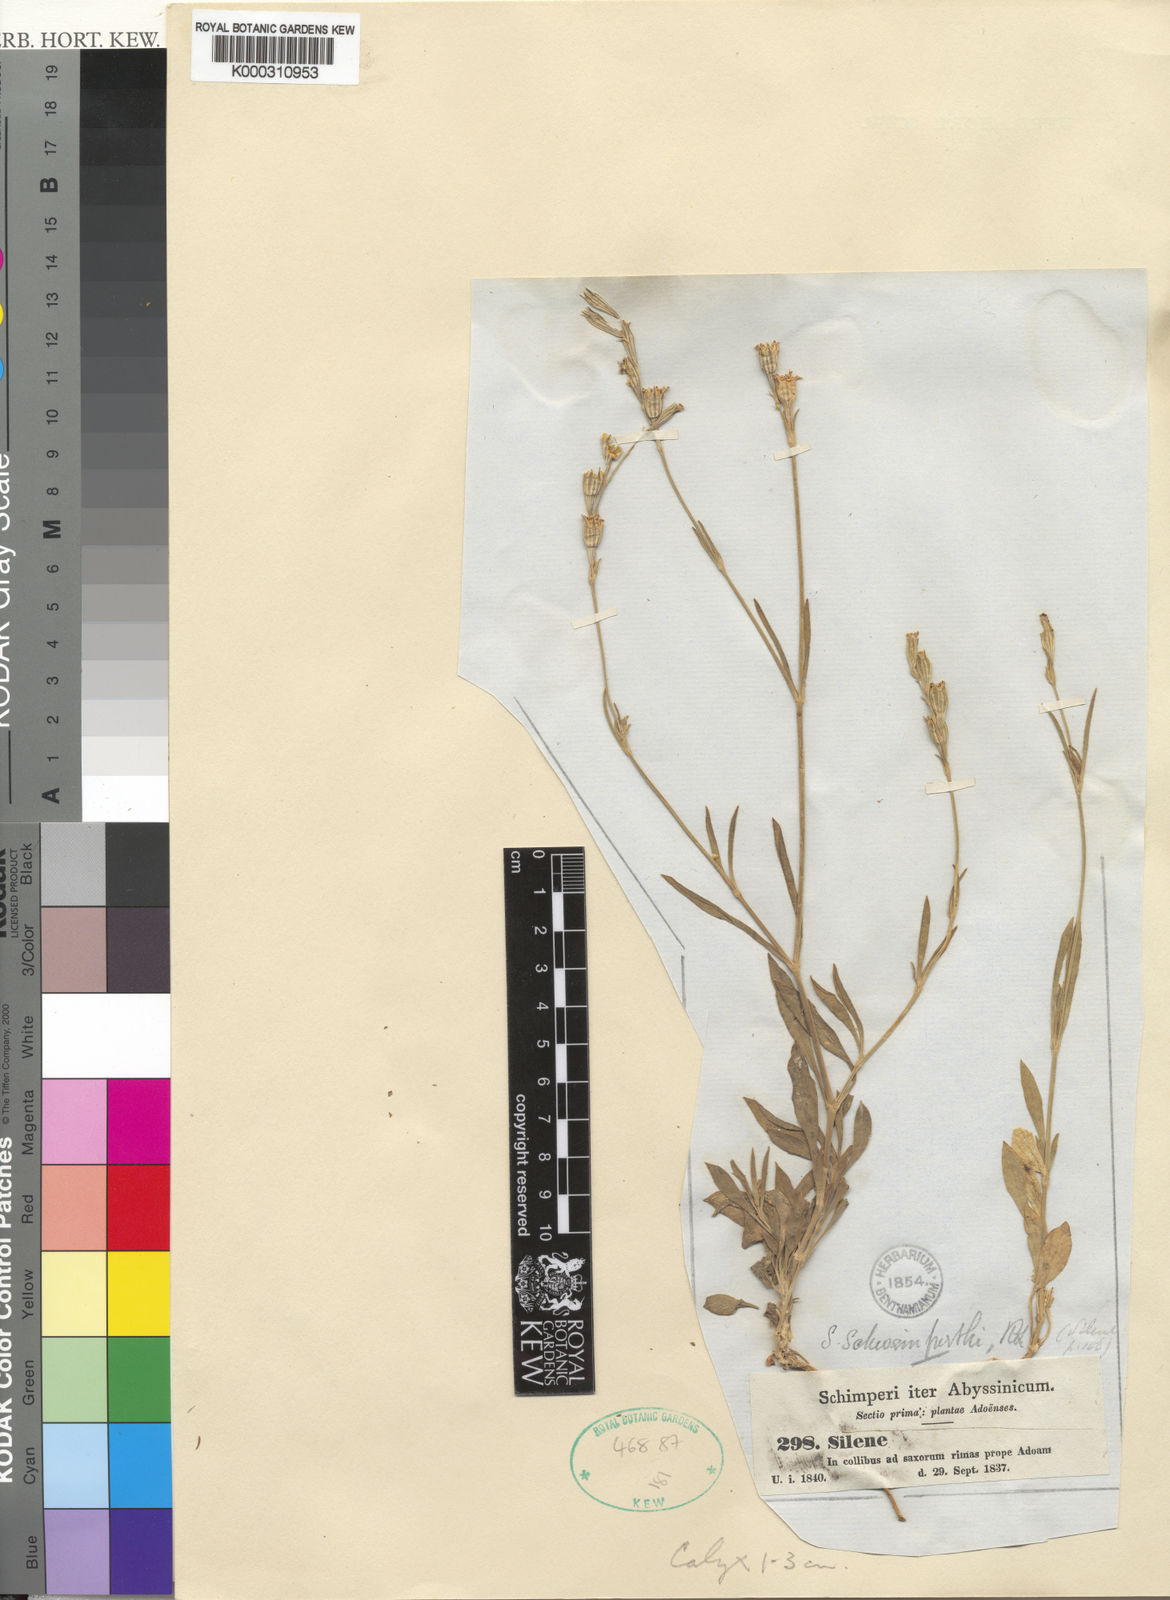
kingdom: Plantae
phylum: Tracheophyta
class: Magnoliopsida
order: Caryophyllales
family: Caryophyllaceae
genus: Silene
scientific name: Silene chirensis
